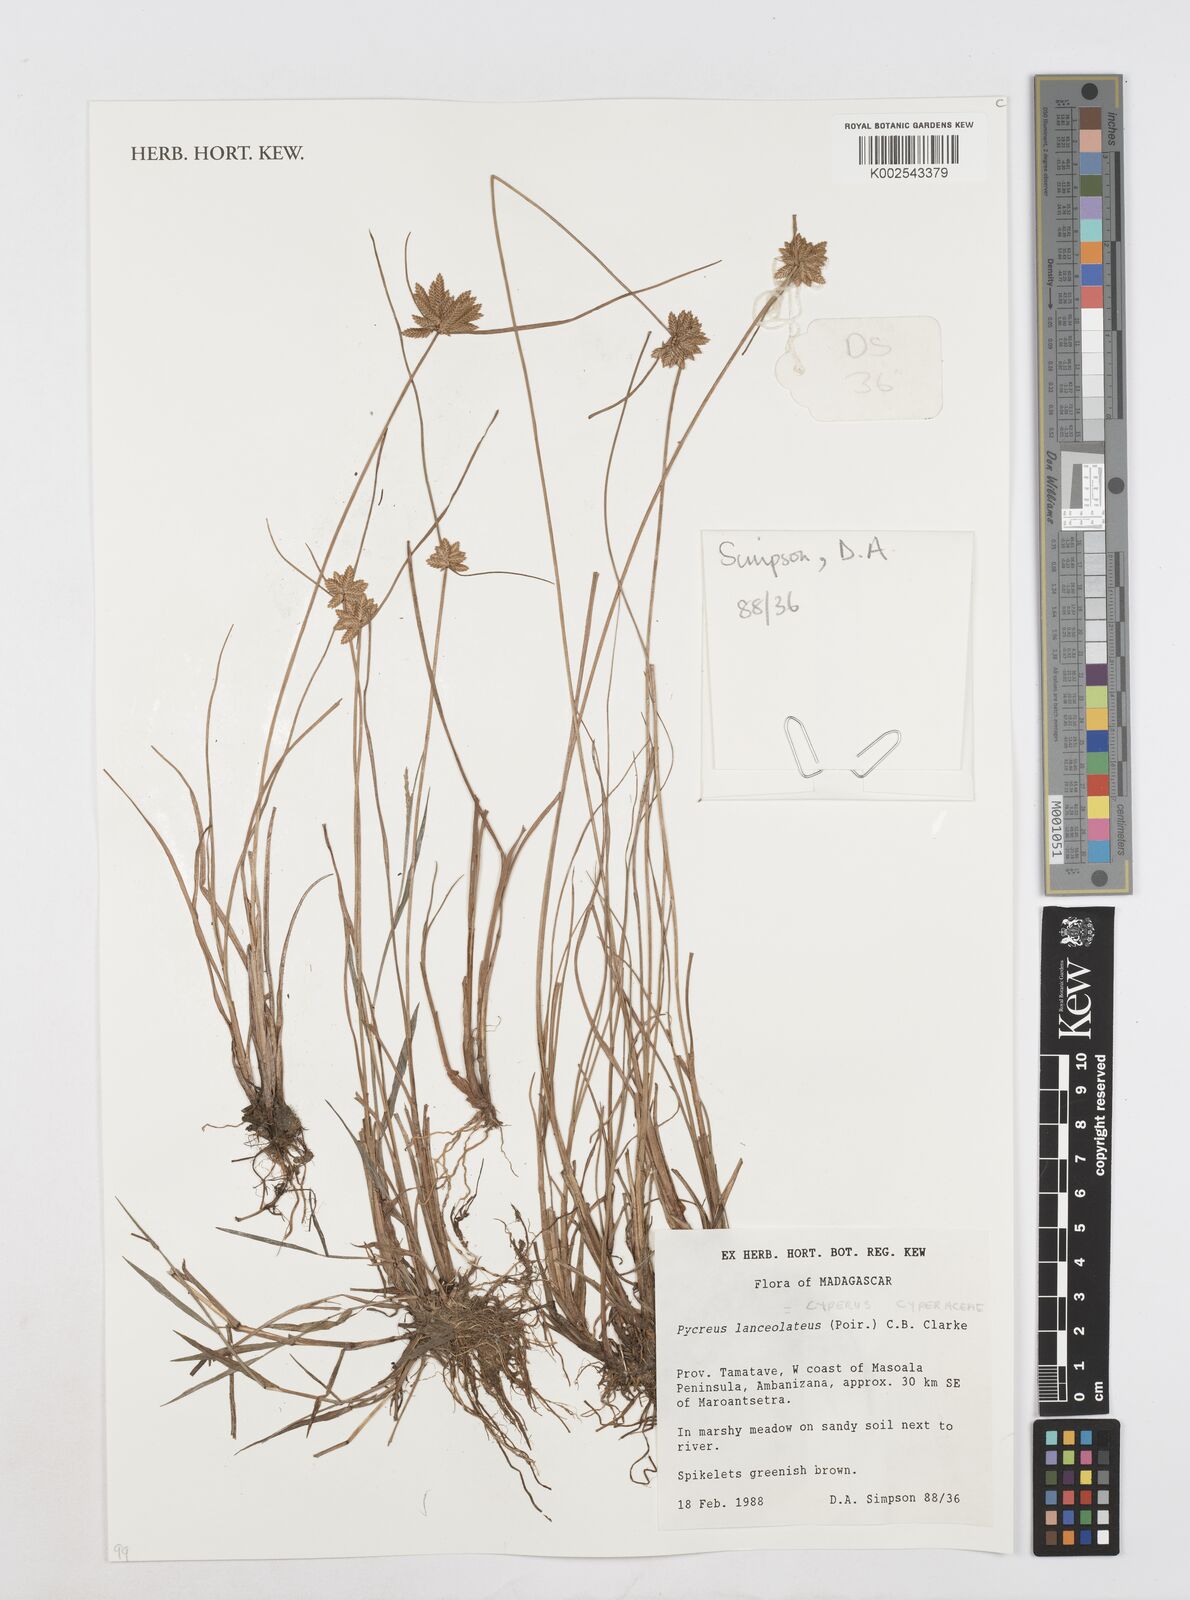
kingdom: Plantae
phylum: Tracheophyta
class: Liliopsida
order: Poales
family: Cyperaceae
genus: Cyperus
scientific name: Cyperus
